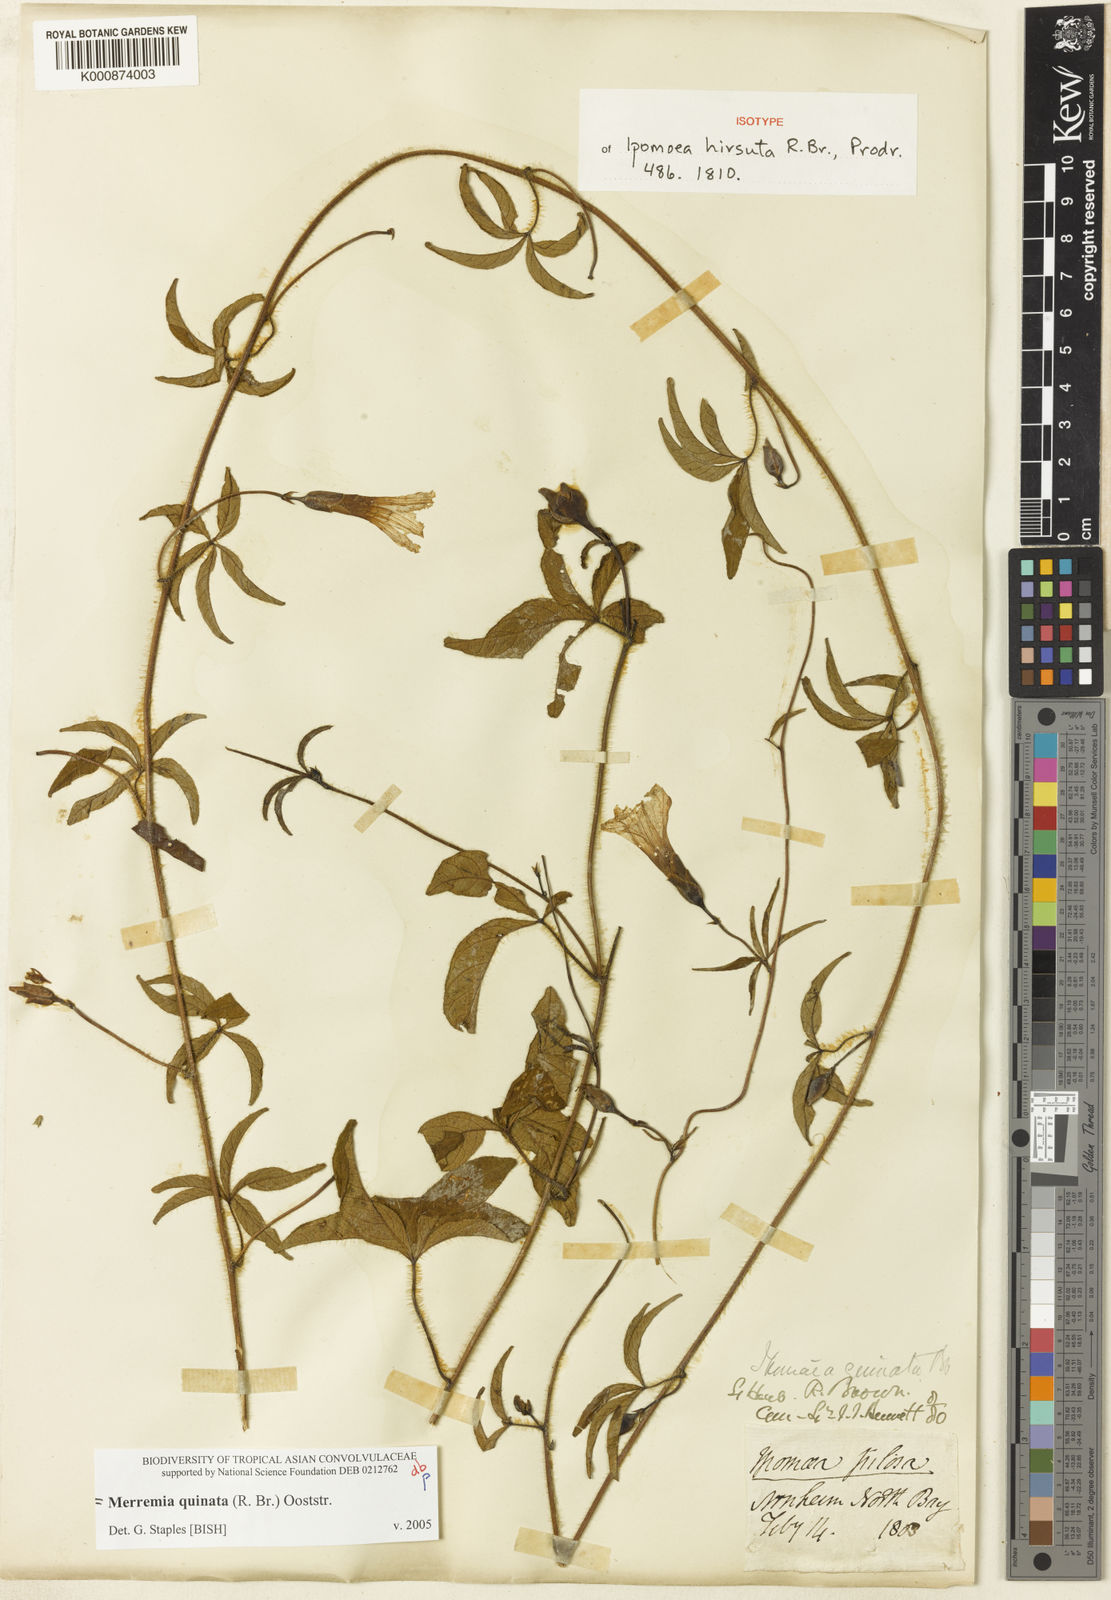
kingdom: Plantae
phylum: Tracheophyta
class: Magnoliopsida
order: Solanales
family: Convolvulaceae
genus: Distimake
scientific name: Distimake
